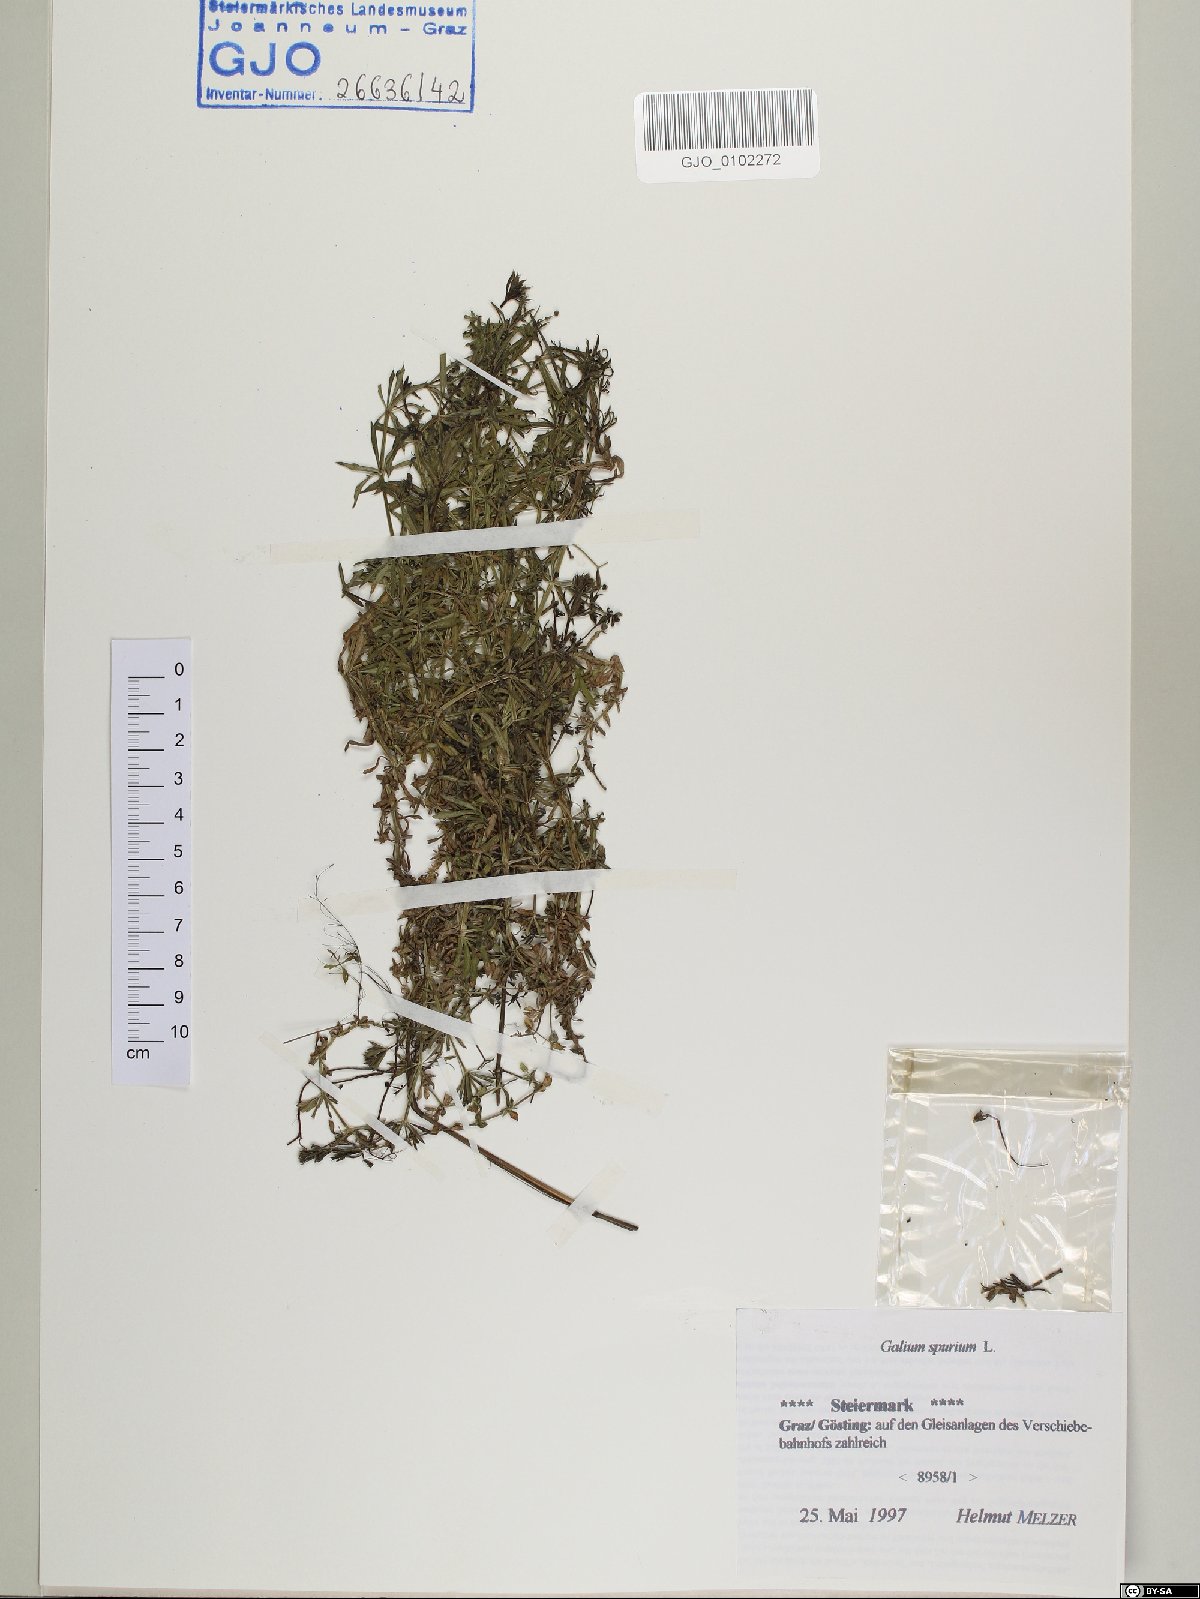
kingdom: Plantae
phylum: Tracheophyta
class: Magnoliopsida
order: Gentianales
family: Rubiaceae
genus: Galium
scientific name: Galium spurium
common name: False cleavers
